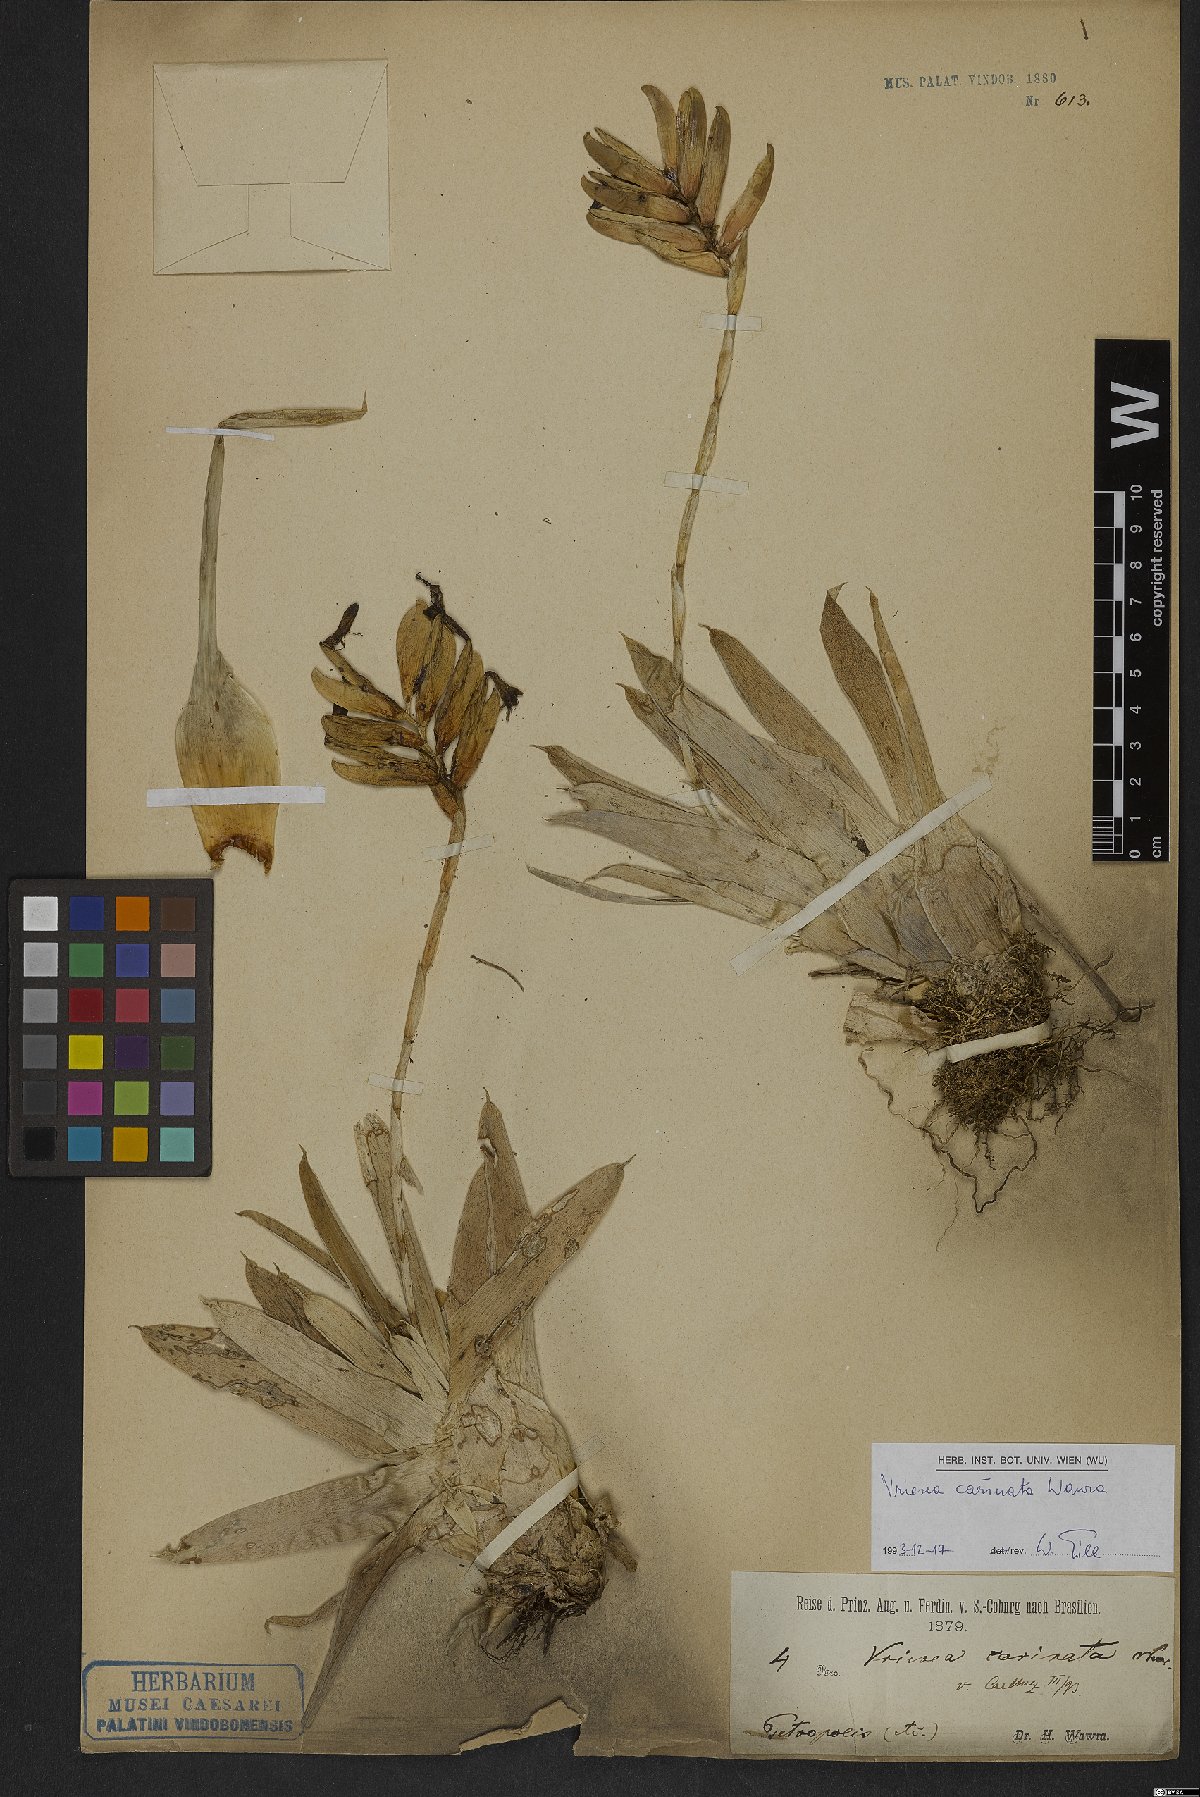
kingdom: Plantae
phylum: Tracheophyta
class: Liliopsida
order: Poales
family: Bromeliaceae
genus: Vriesea
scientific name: Vriesea carinata
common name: Lobster-claws
